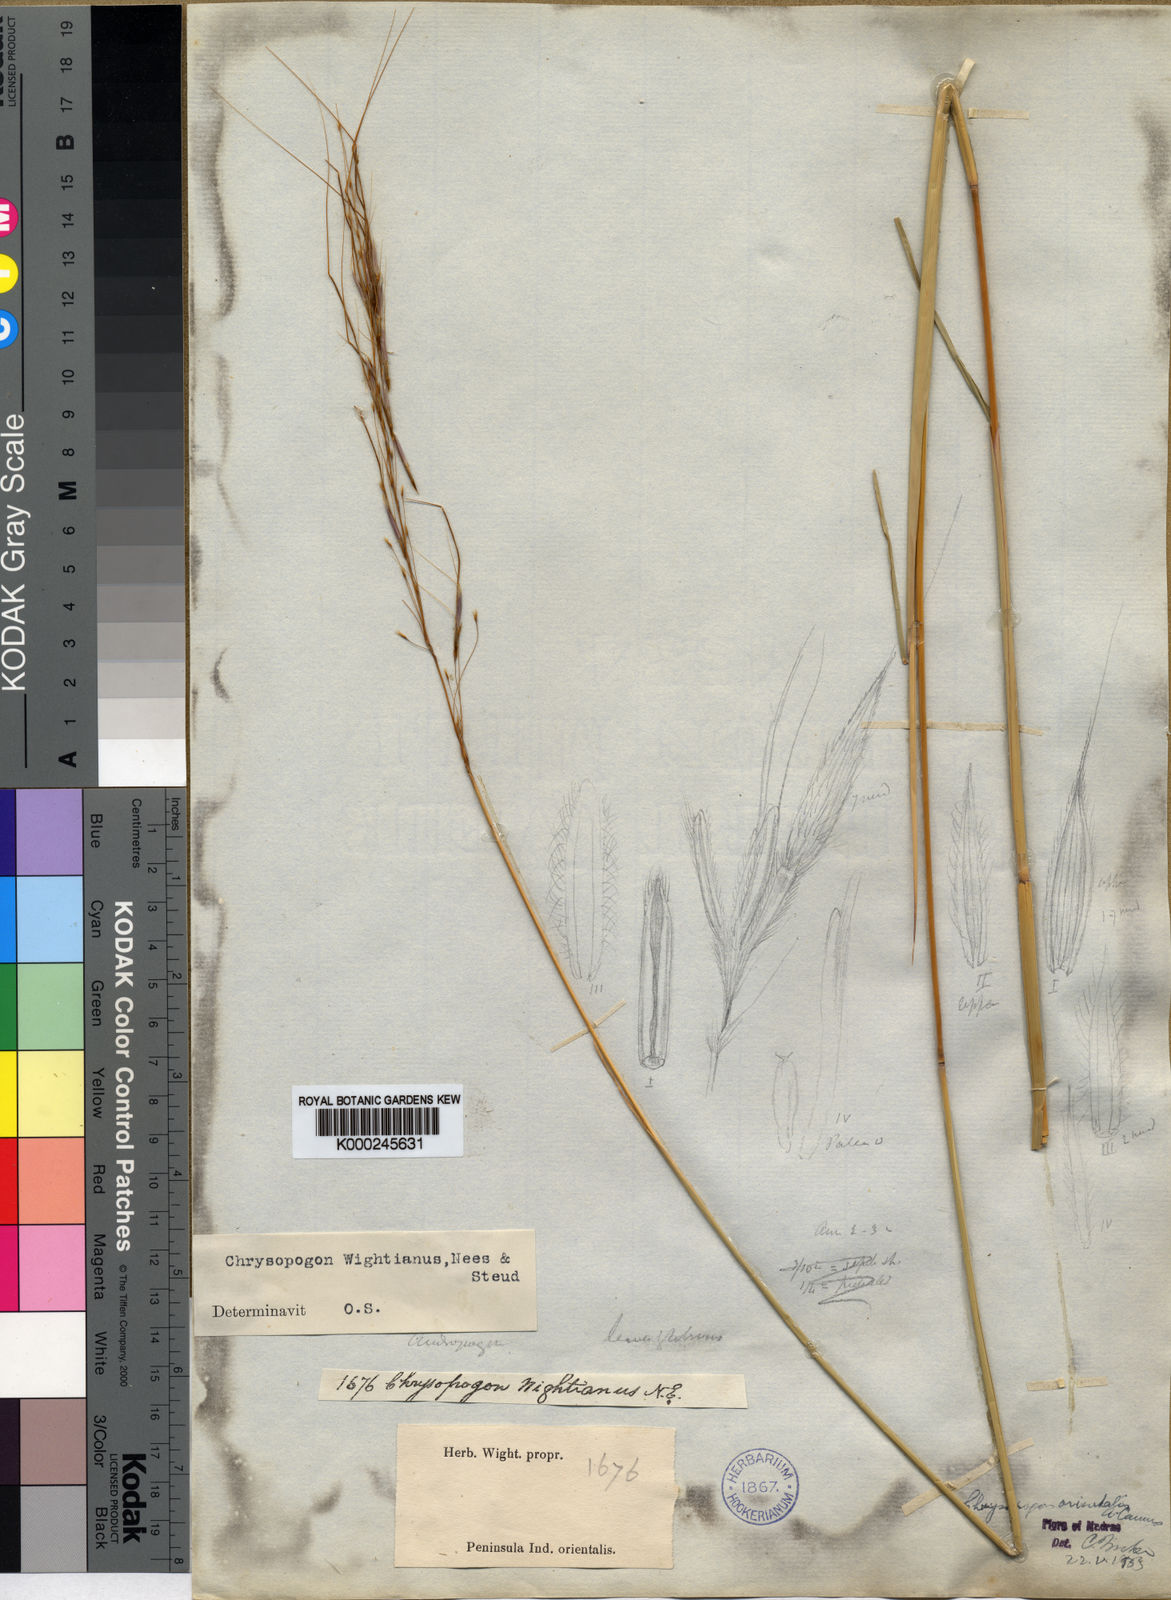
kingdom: Plantae
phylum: Tracheophyta
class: Liliopsida
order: Poales
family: Poaceae
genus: Chrysopogon
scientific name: Chrysopogon orientalis
